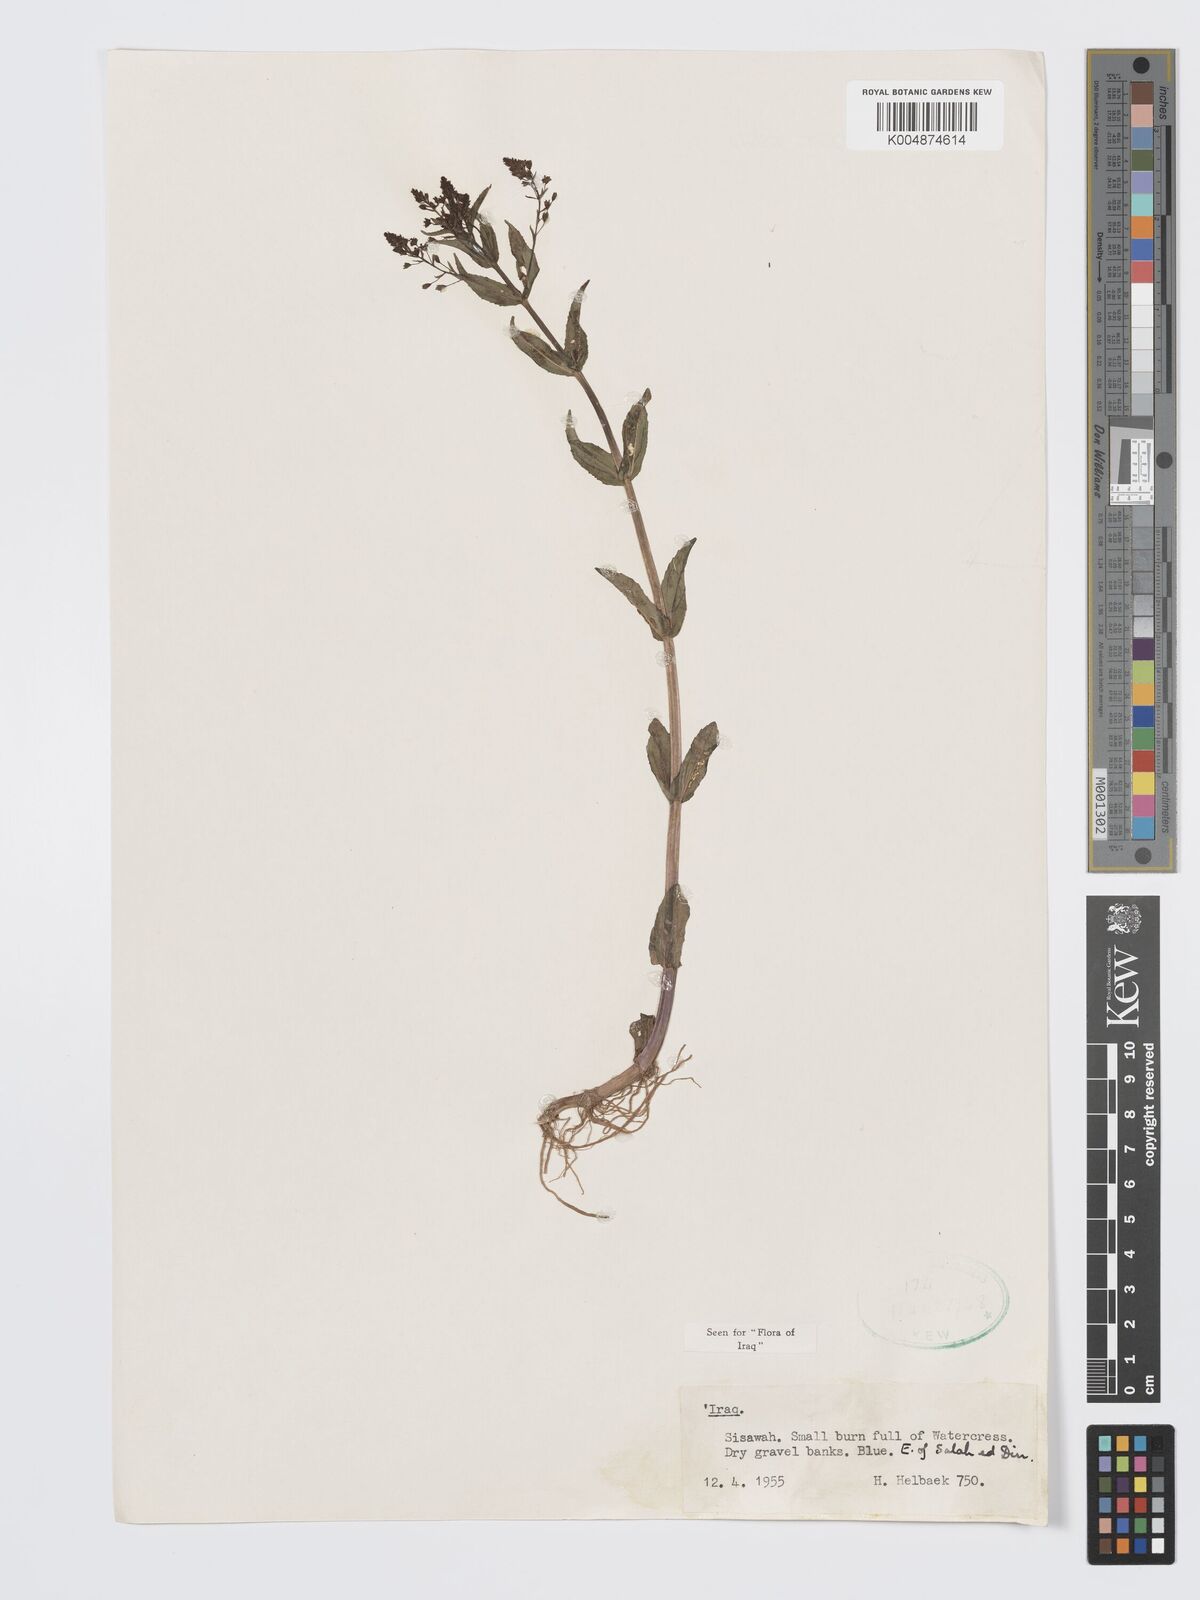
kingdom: Plantae
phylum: Tracheophyta
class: Magnoliopsida
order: Lamiales
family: Plantaginaceae
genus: Veronica
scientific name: Veronica
